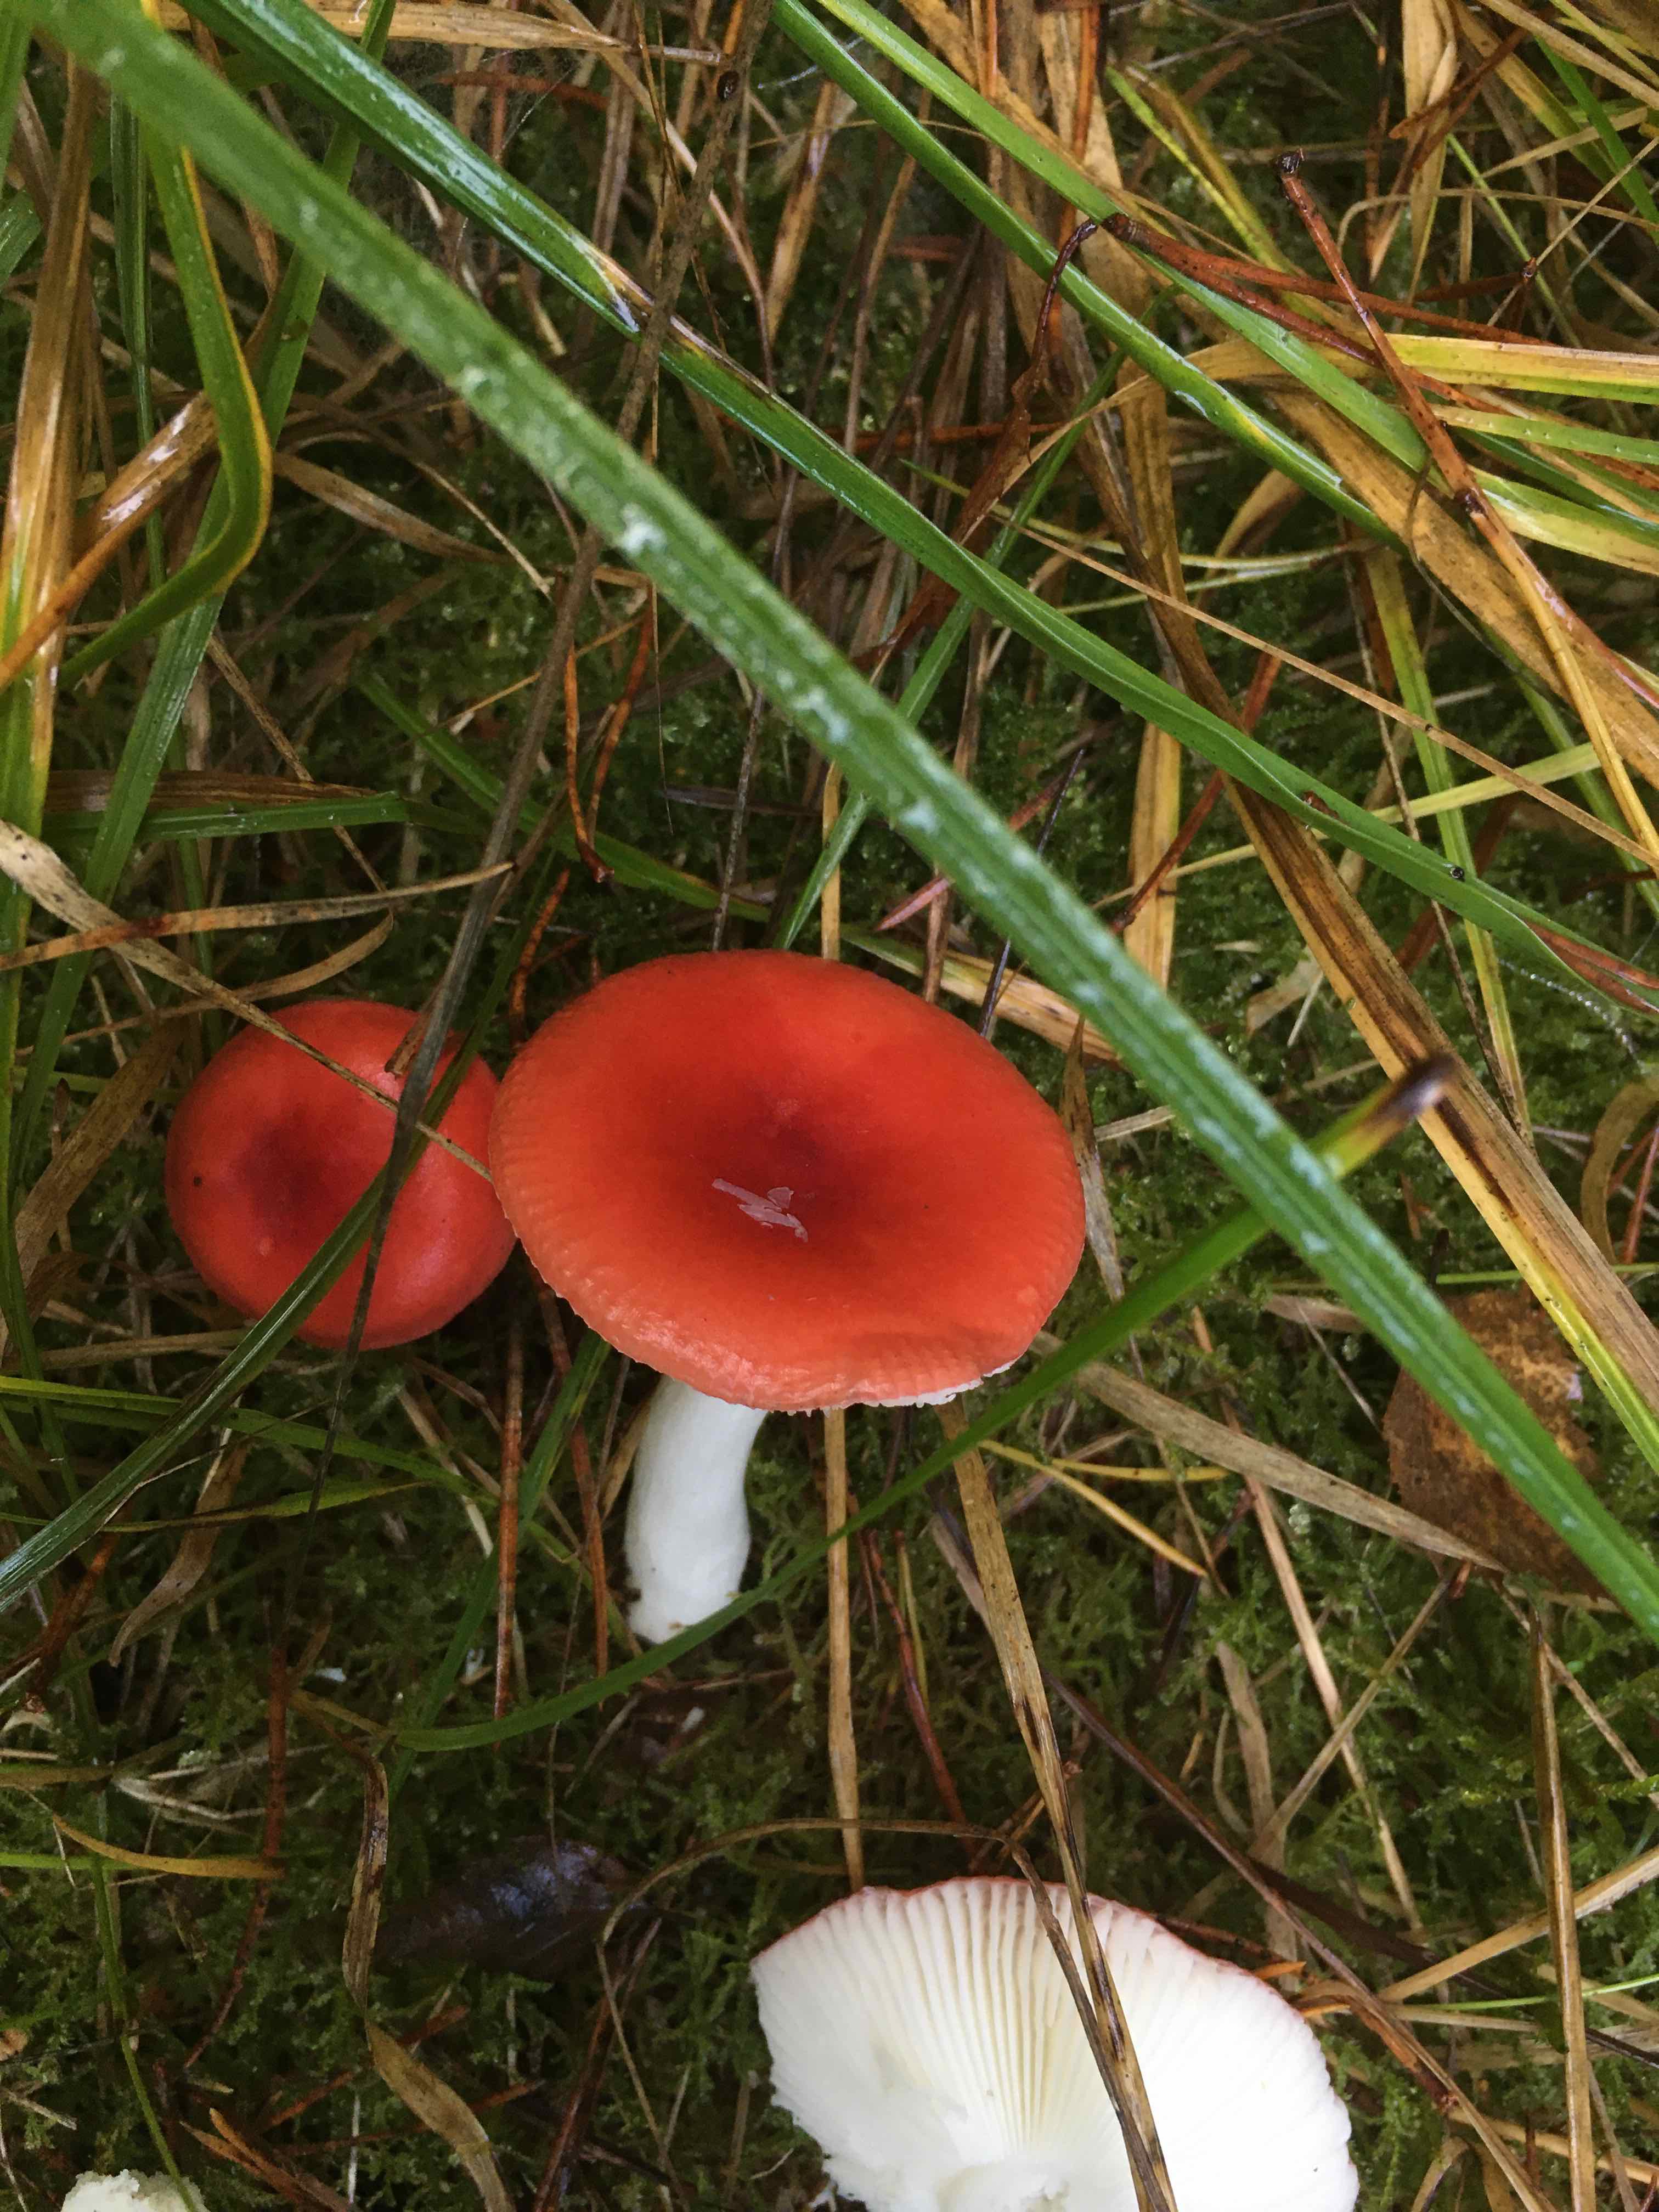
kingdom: Fungi
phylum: Basidiomycota
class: Agaricomycetes
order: Russulales
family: Russulaceae
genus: Russula
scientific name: Russula emetica
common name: stor gift-skørhat
